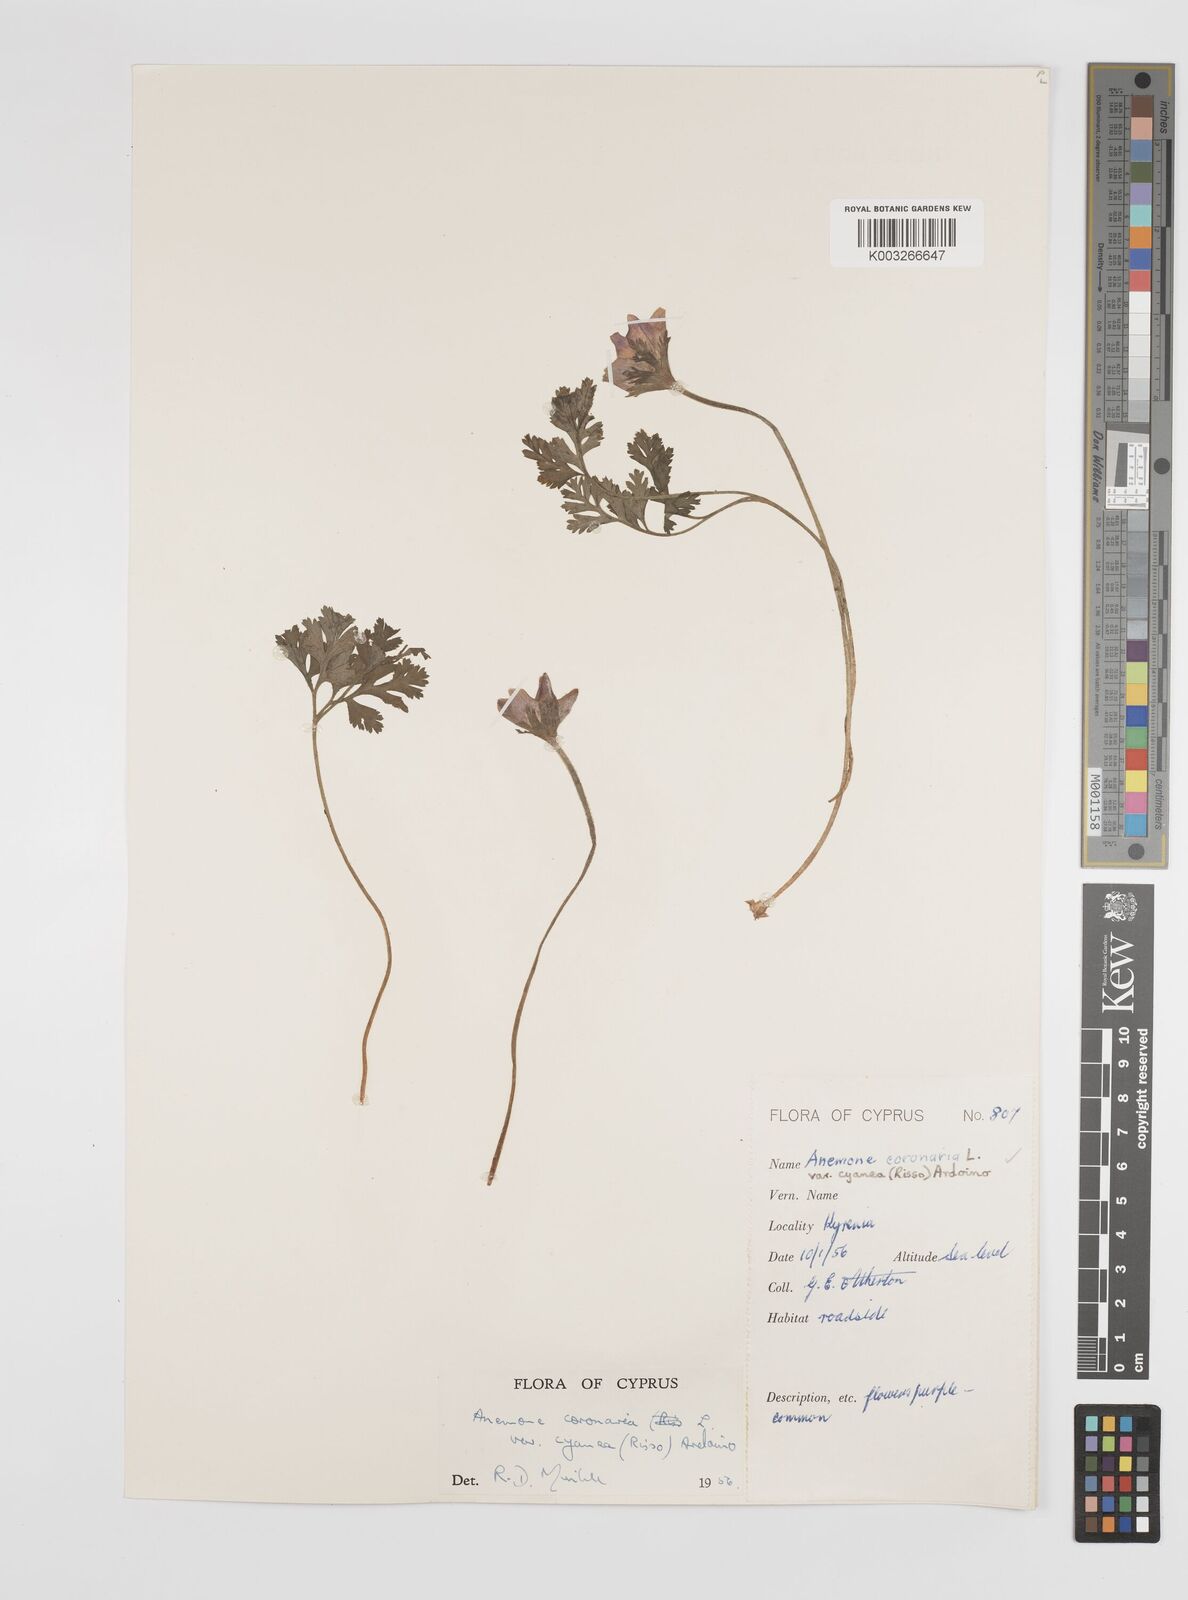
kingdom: Plantae
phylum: Tracheophyta
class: Magnoliopsida
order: Ranunculales
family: Ranunculaceae
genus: Anemone
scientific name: Anemone coronaria
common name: Poppy anemone
